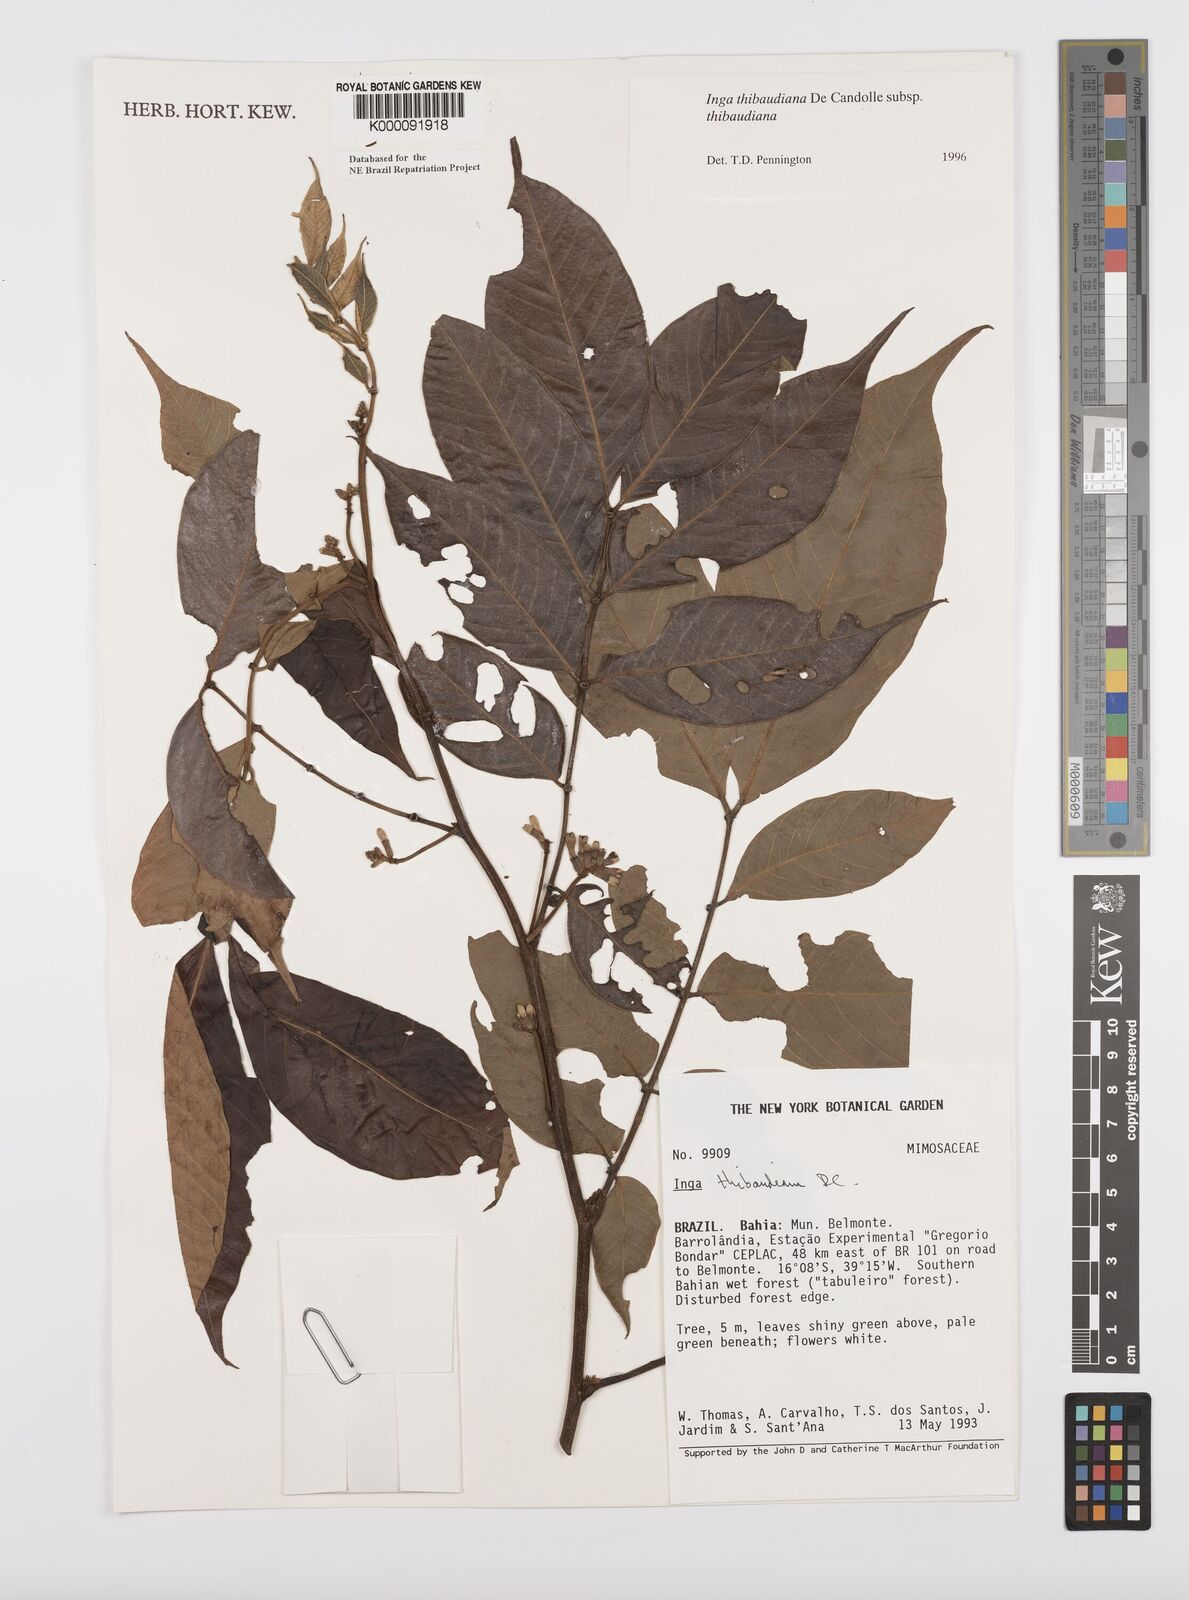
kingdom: Plantae
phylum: Tracheophyta
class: Magnoliopsida
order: Fabales
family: Fabaceae
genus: Inga
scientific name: Inga thibaudiana
